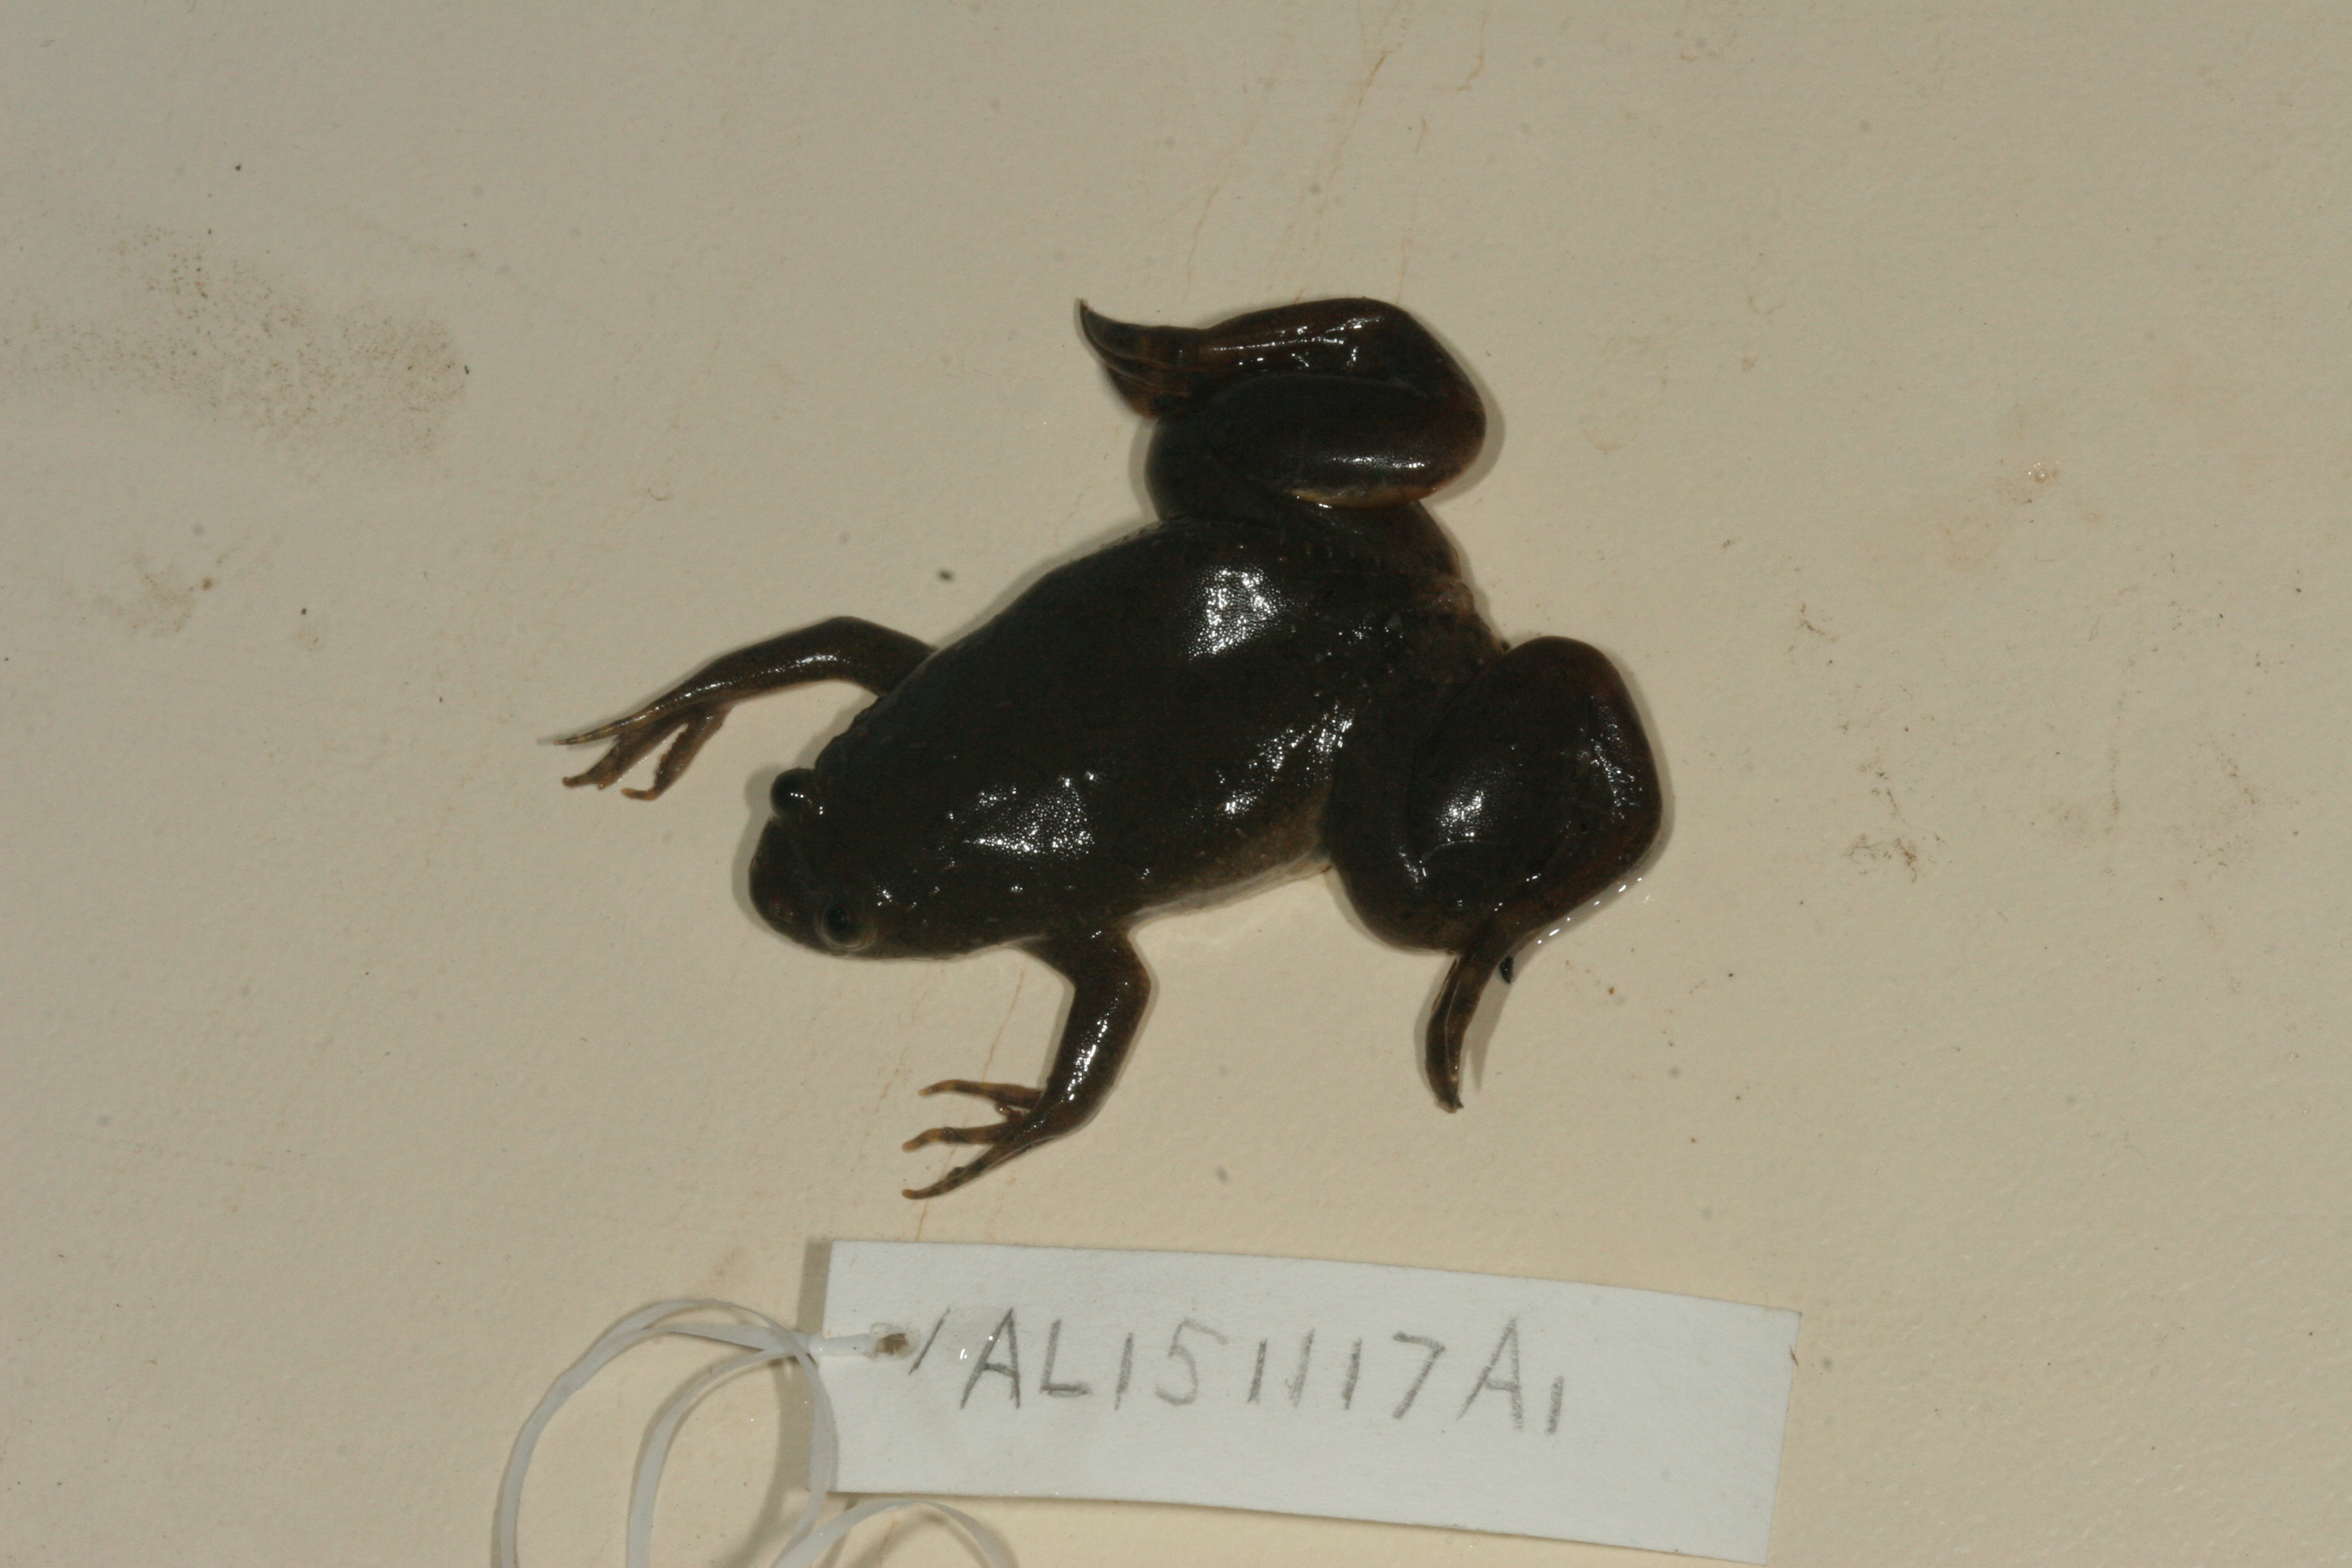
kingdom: Animalia
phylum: Chordata
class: Amphibia
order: Anura
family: Pipidae
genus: Xenopus
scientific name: Xenopus muelleri
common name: Muller's clawed frog
